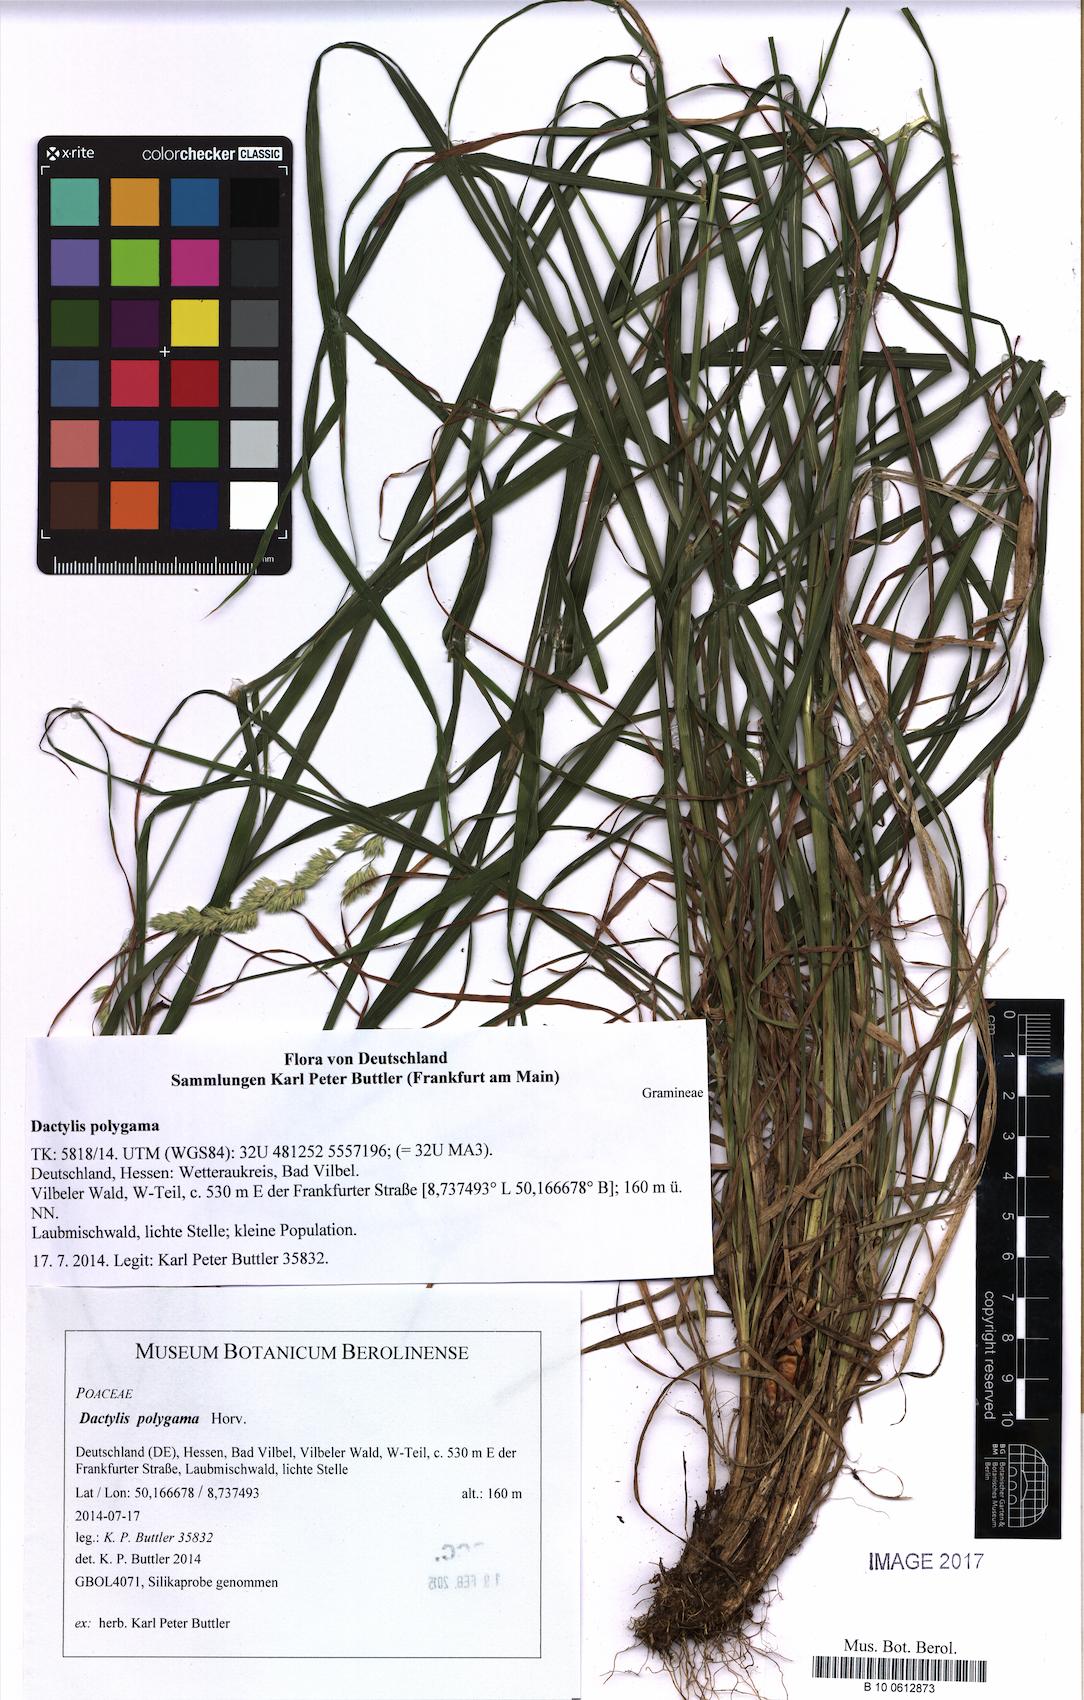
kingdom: Plantae
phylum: Tracheophyta
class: Liliopsida
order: Poales
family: Poaceae
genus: Dactylis
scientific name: Dactylis glomerata
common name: Orchardgrass
